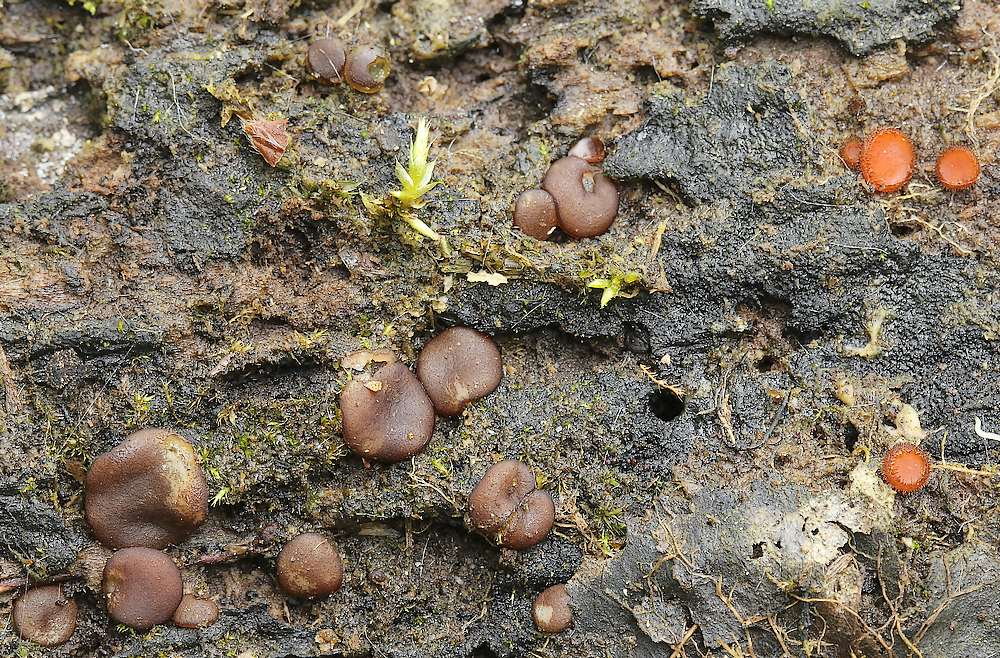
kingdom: Fungi
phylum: Ascomycota
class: Pezizomycetes
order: Pezizales
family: Pezizaceae
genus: Adelphella
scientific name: Adelphella babingtonii
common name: almindelig bækbæger
